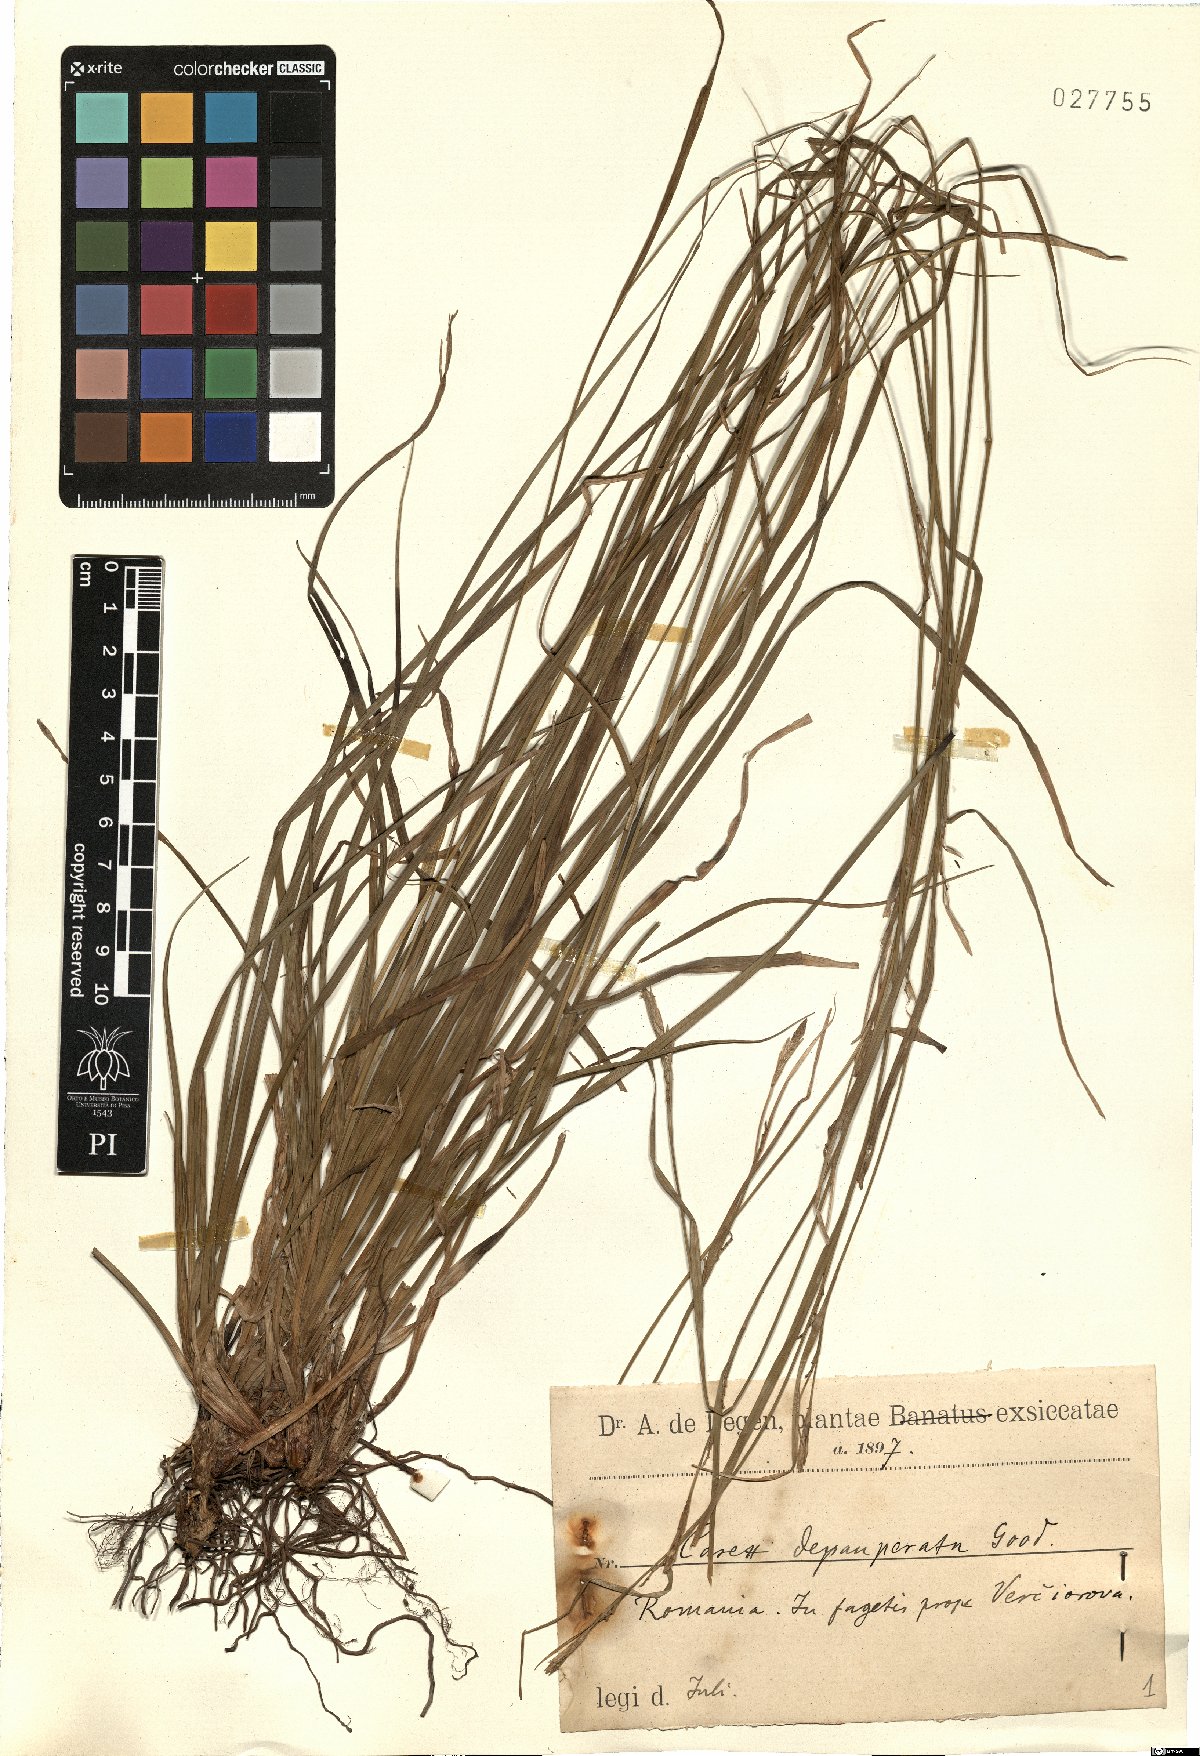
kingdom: Plantae
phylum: Tracheophyta
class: Liliopsida
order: Poales
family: Cyperaceae
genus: Carex
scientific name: Carex depauperata
